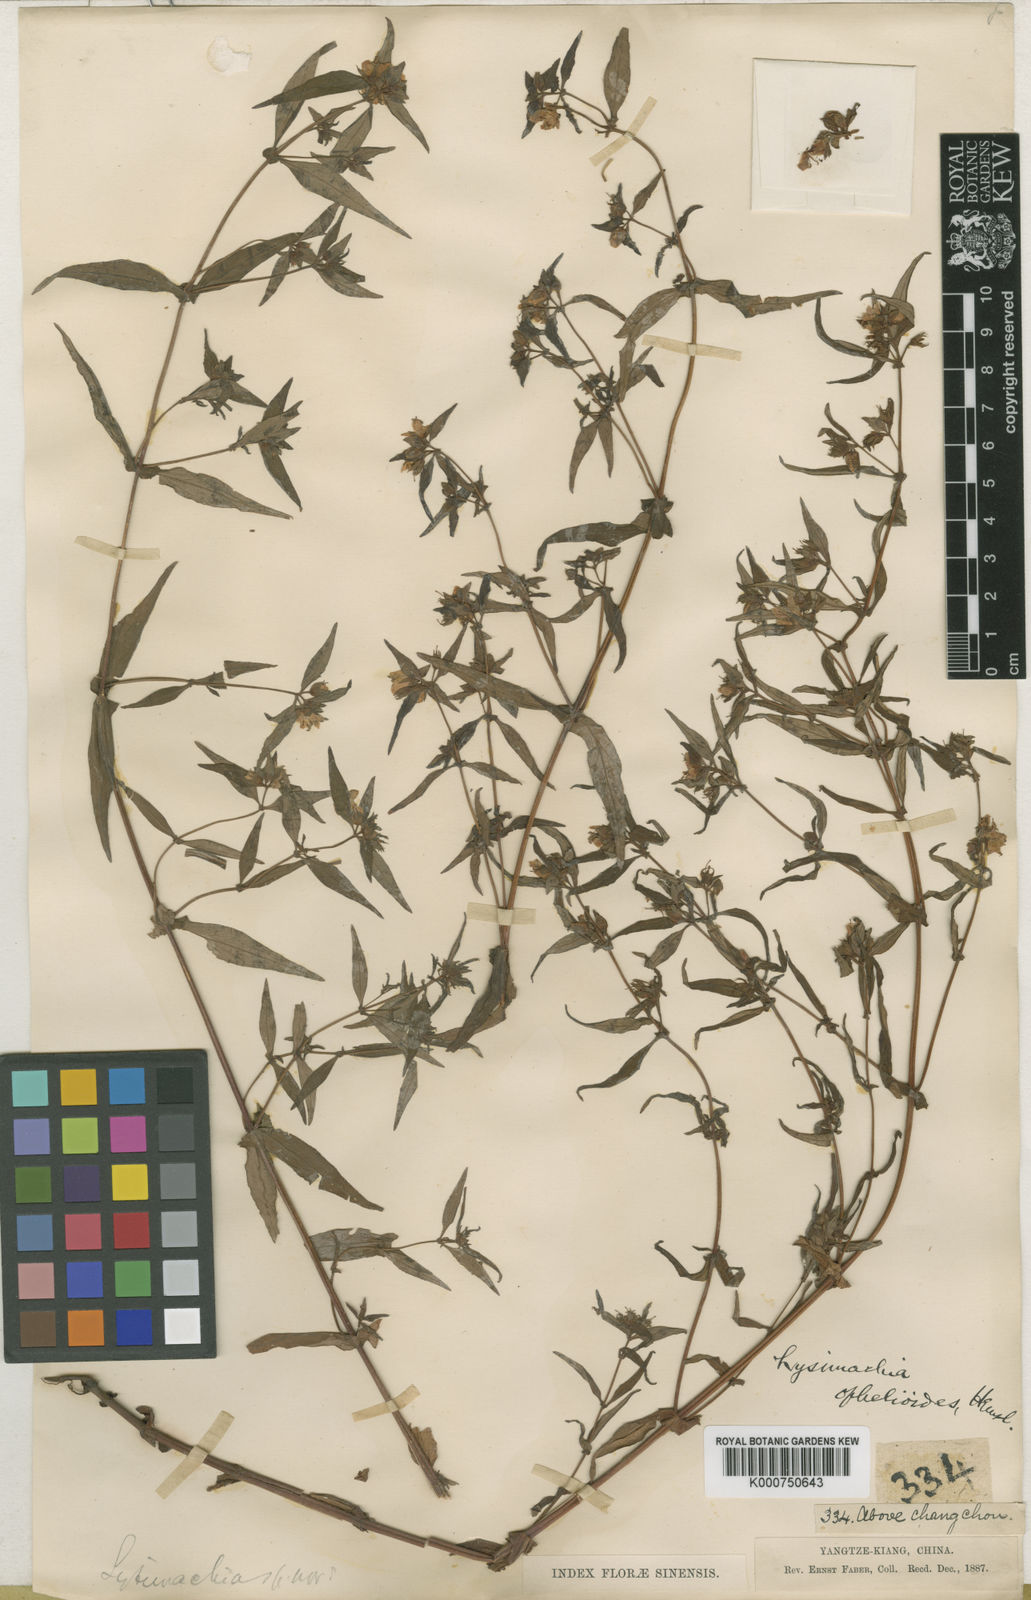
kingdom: Plantae
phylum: Tracheophyta
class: Magnoliopsida
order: Ericales
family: Primulaceae
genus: Lysimachia
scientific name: Lysimachia ophelioides
